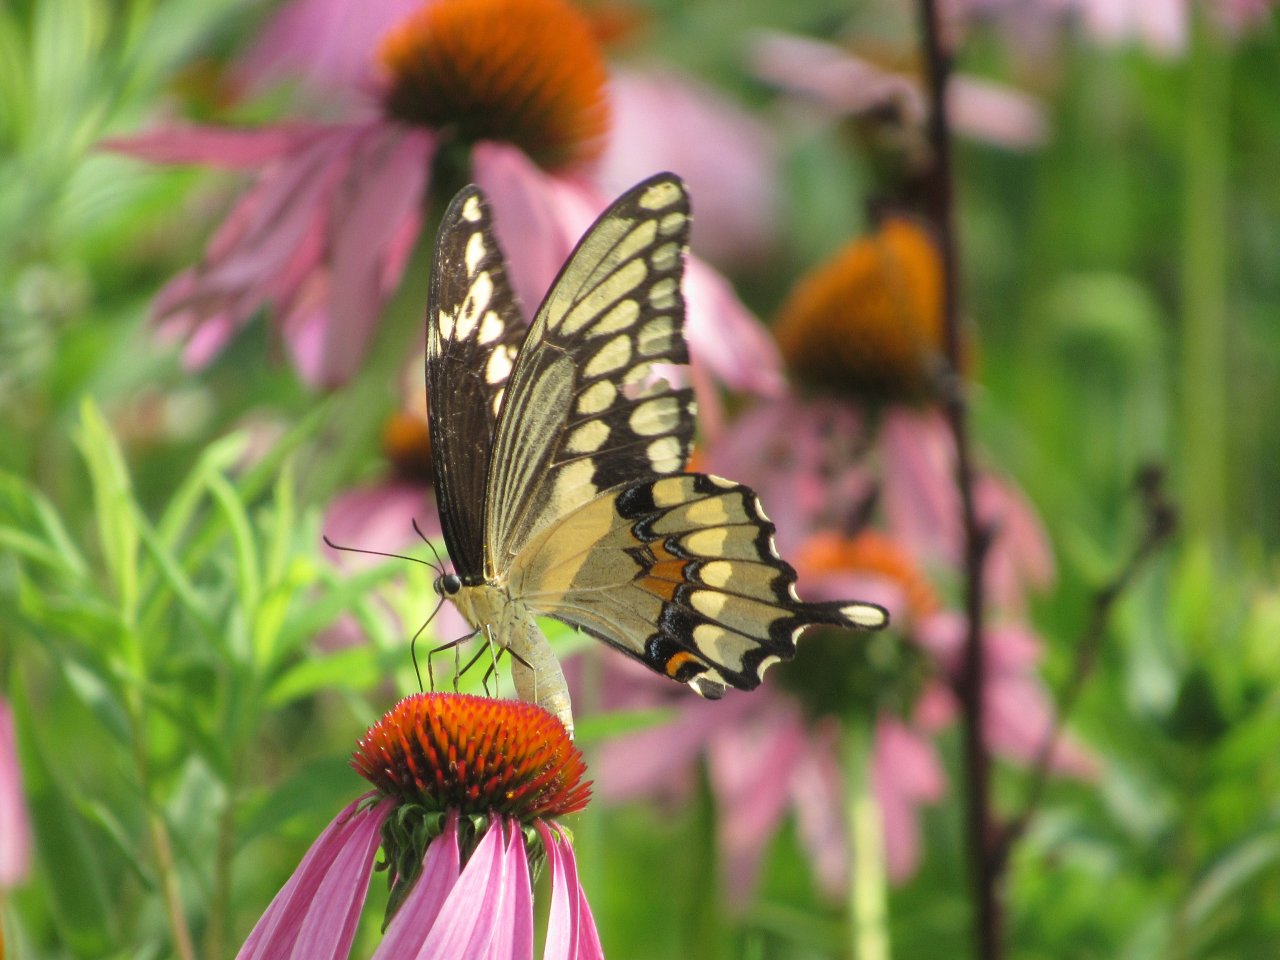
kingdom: Animalia
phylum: Arthropoda
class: Insecta
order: Lepidoptera
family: Papilionidae
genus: Papilio
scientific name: Papilio cresphontes
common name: Eastern Giant Swallowtail
